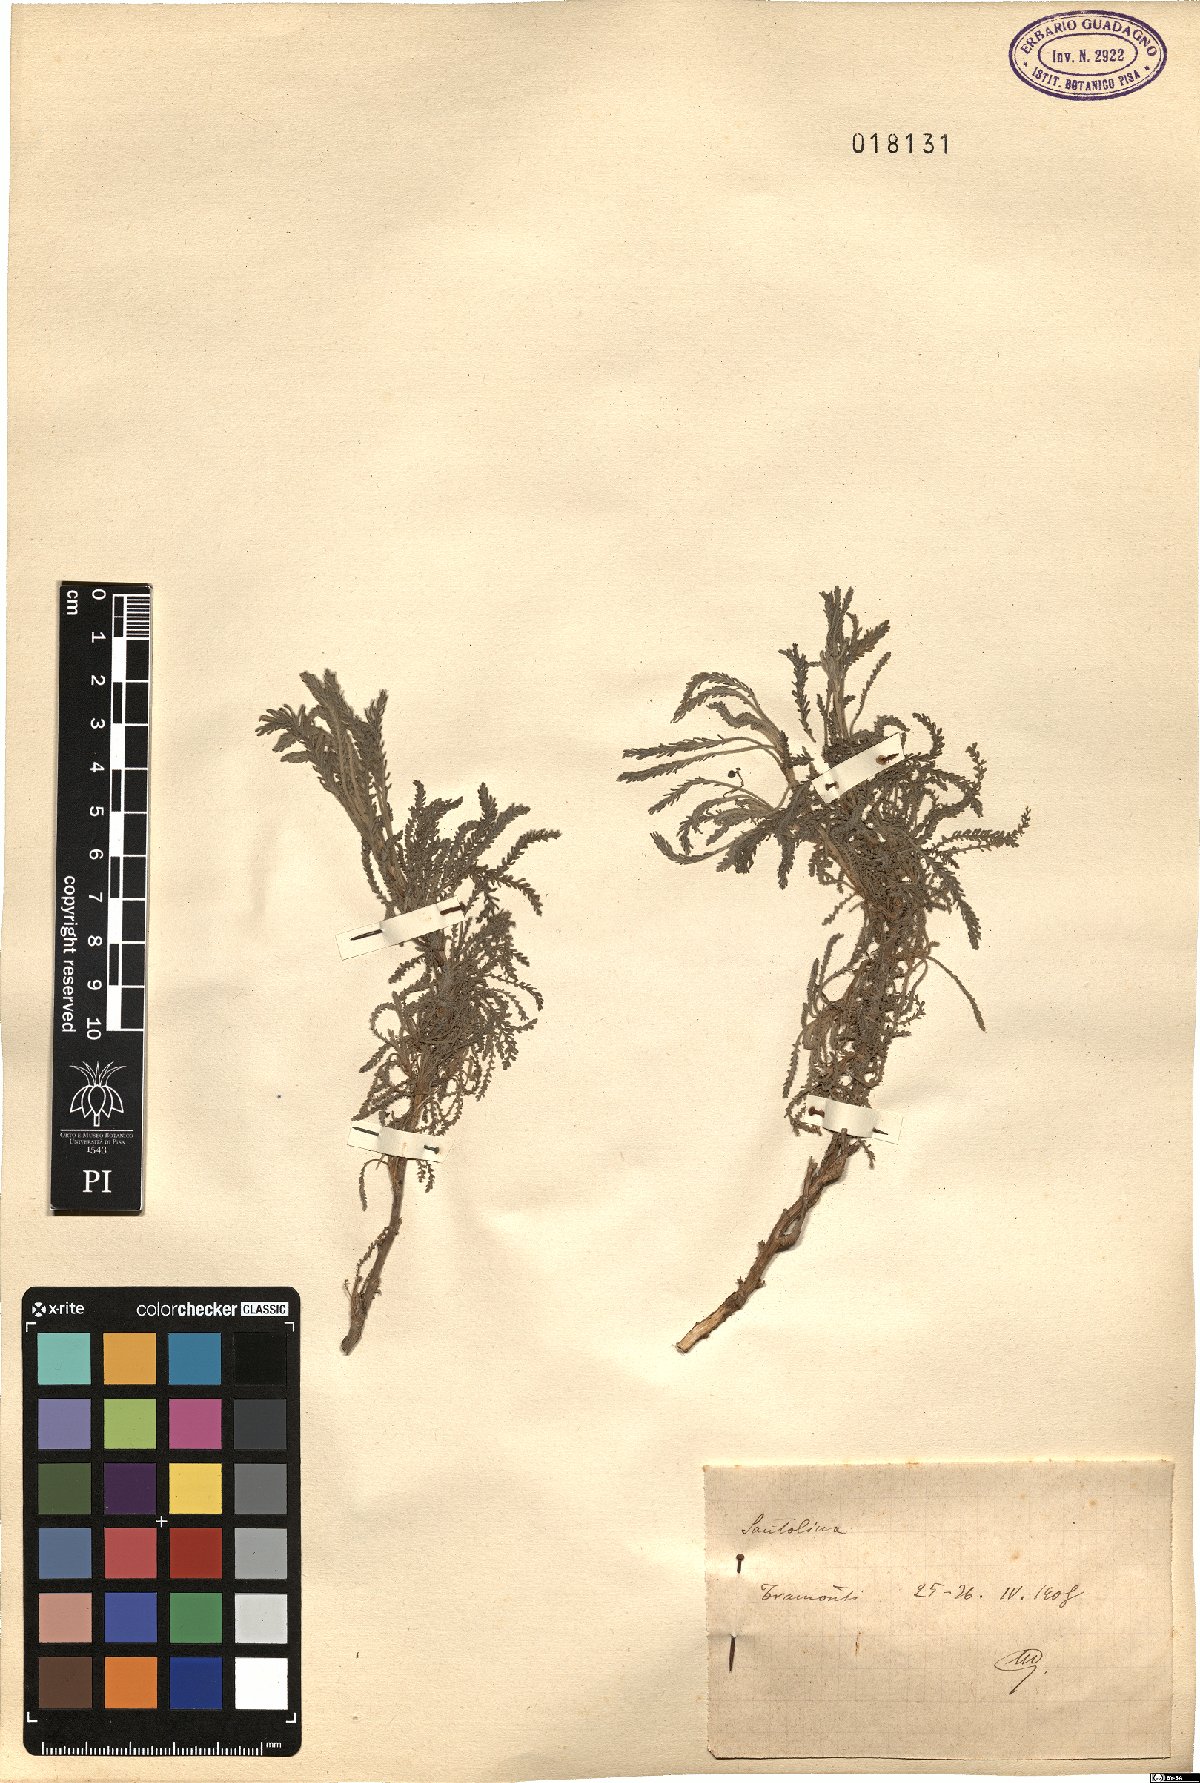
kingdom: Plantae
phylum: Tracheophyta
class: Magnoliopsida
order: Asterales
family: Asteraceae
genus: Santolina
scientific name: Santolina
